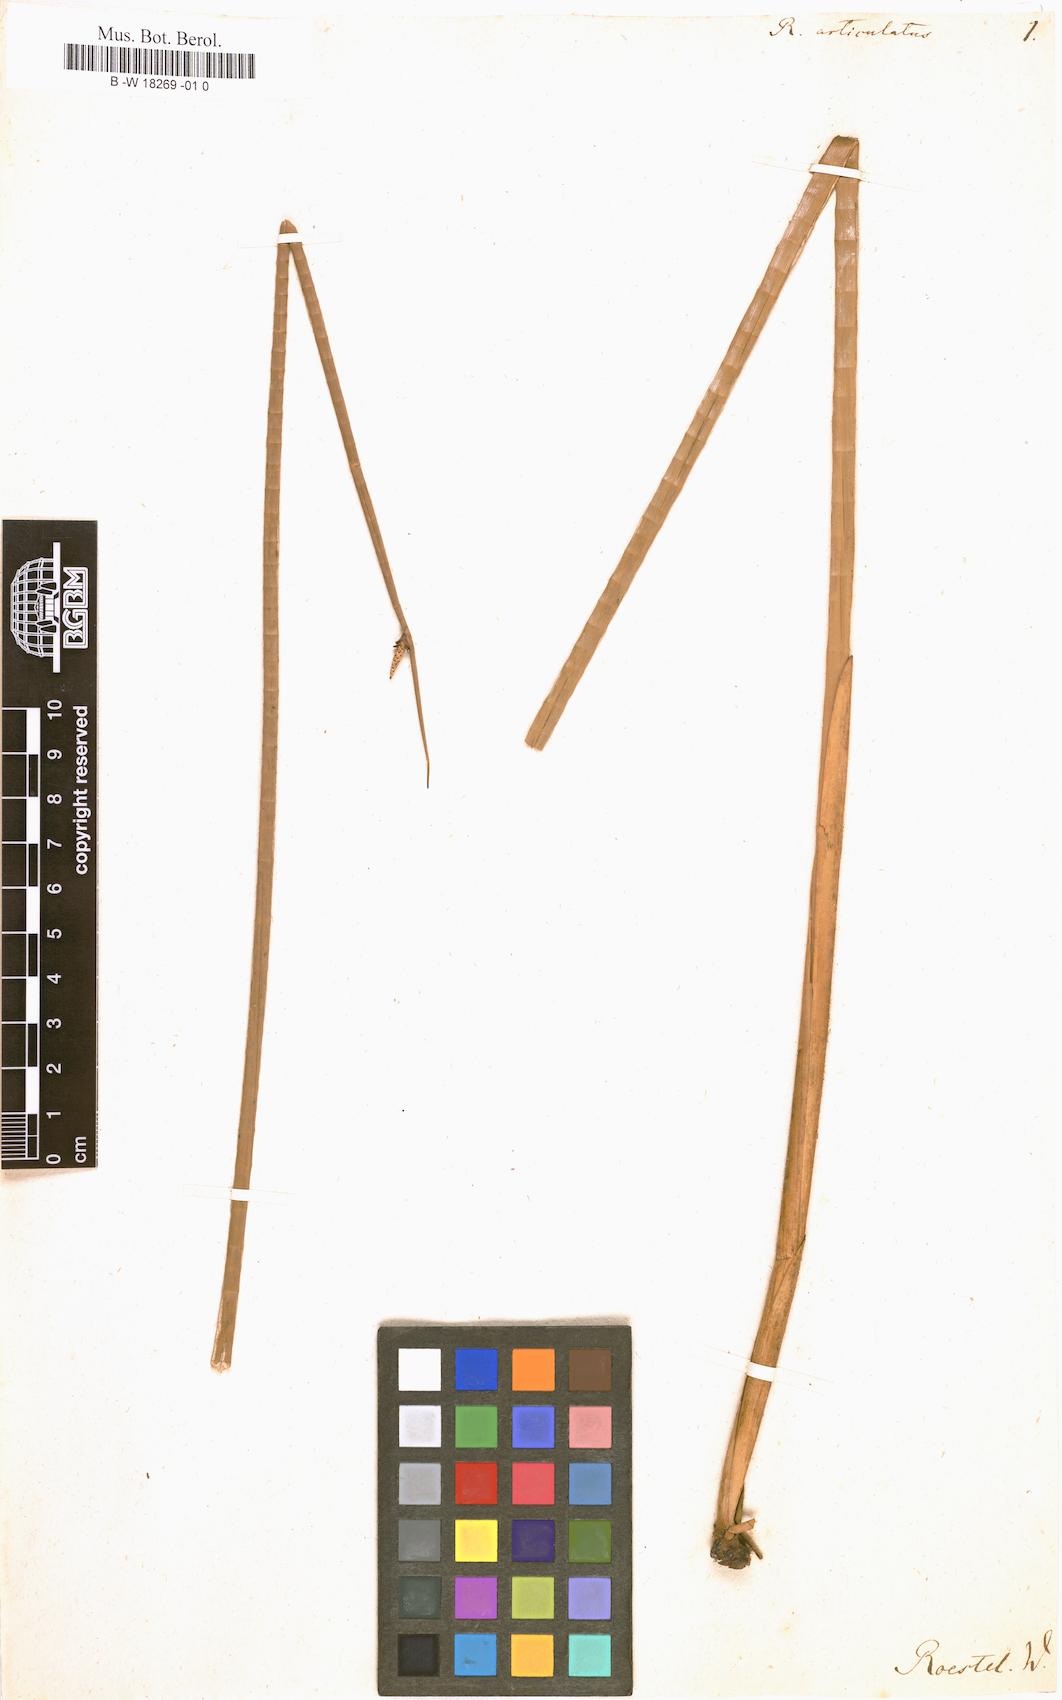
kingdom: Plantae
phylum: Tracheophyta
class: Liliopsida
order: Poales
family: Cyperaceae
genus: Lepironia
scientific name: Lepironia articulata
